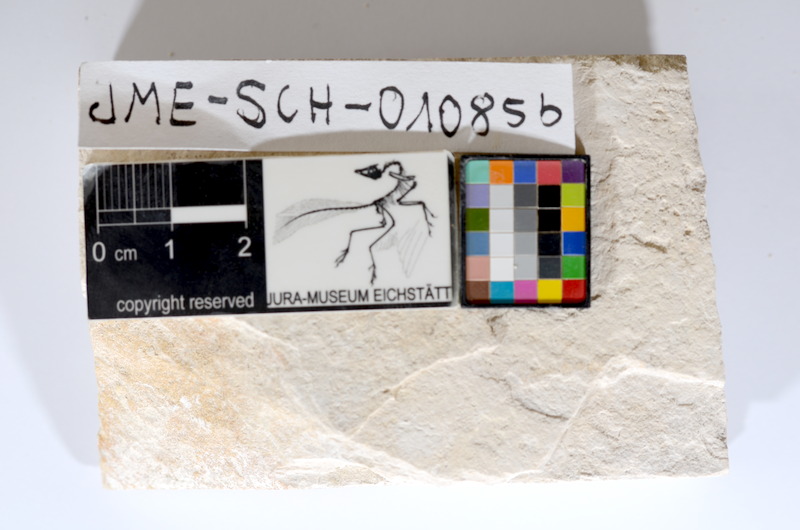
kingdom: Animalia
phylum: Chordata
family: Ascalaboidae
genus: Tharsis
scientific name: Tharsis dubius
